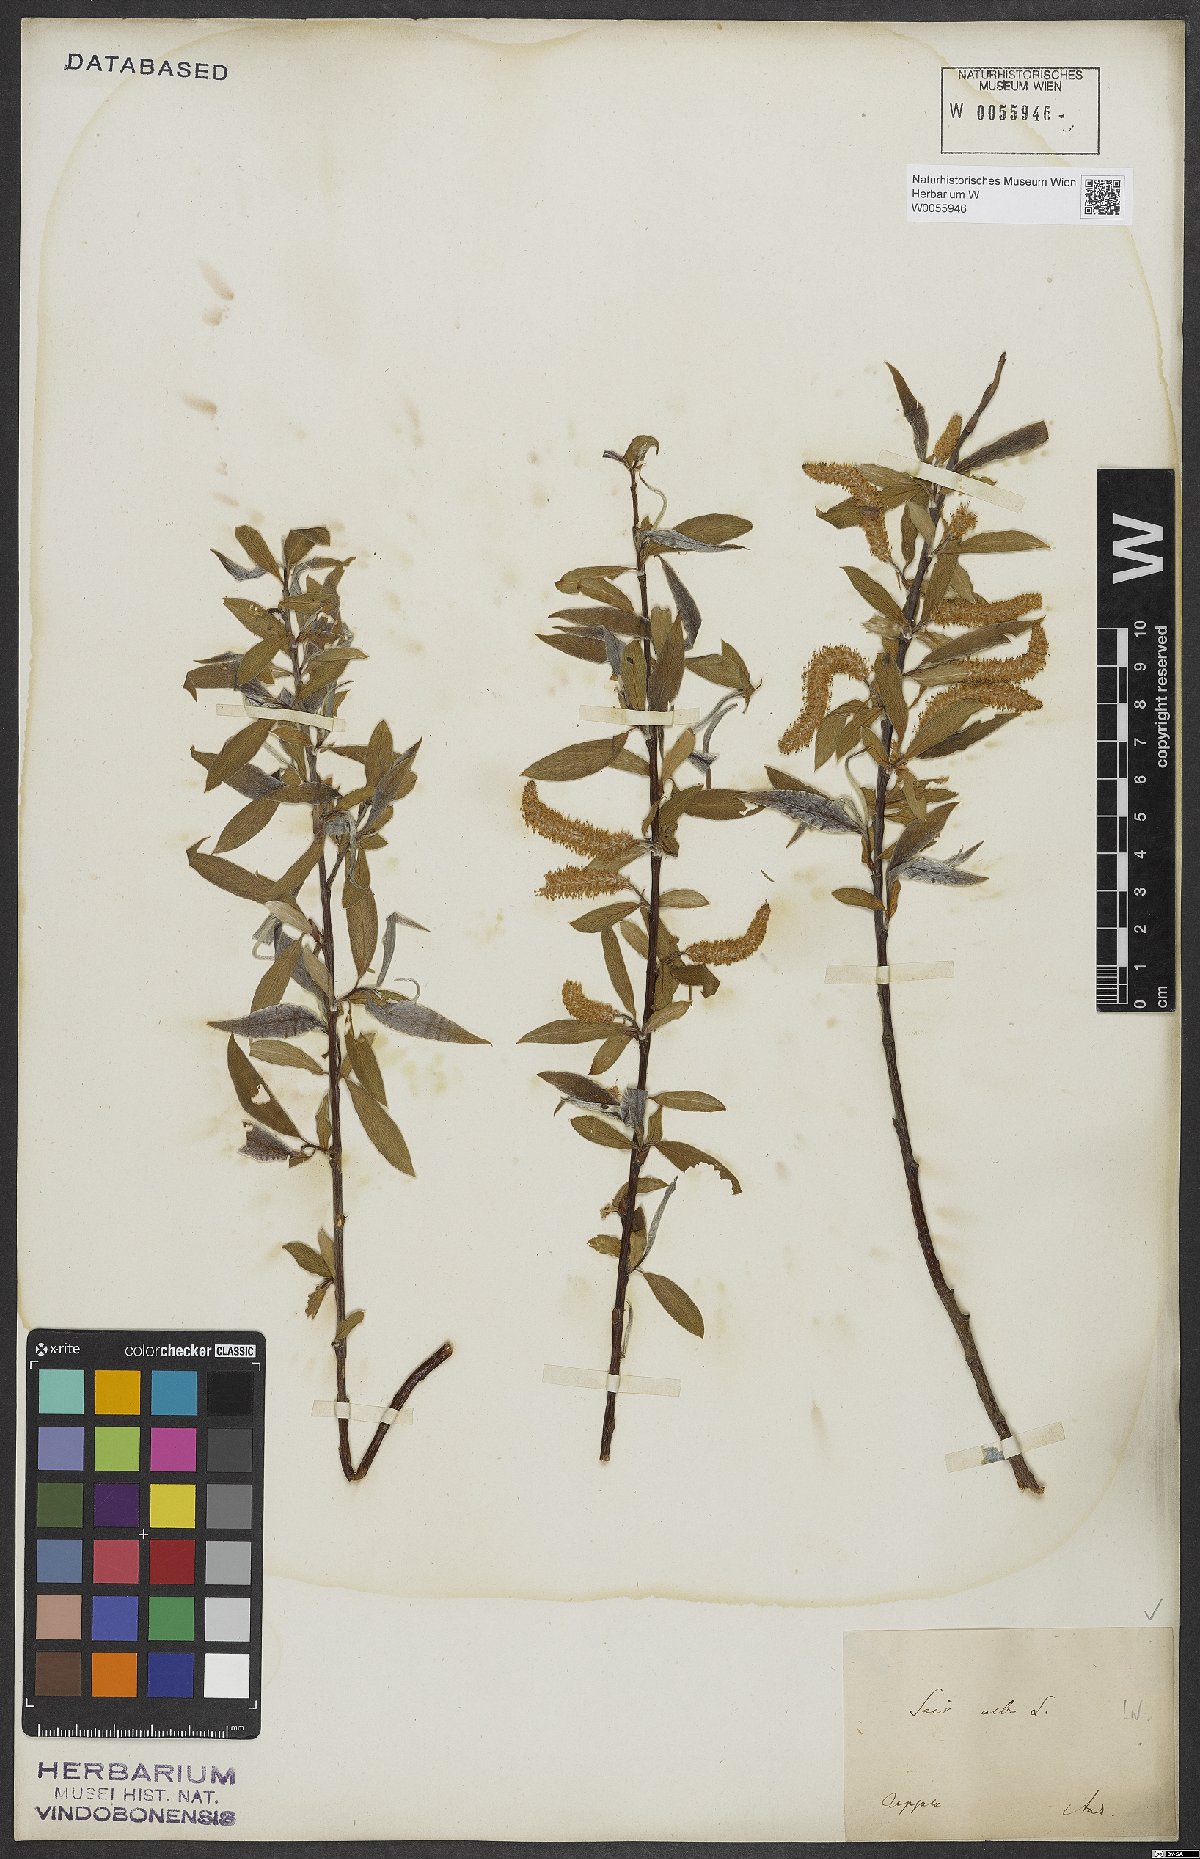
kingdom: Plantae
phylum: Tracheophyta
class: Magnoliopsida
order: Malpighiales
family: Salicaceae
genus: Salix
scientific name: Salix alba
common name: White willow
